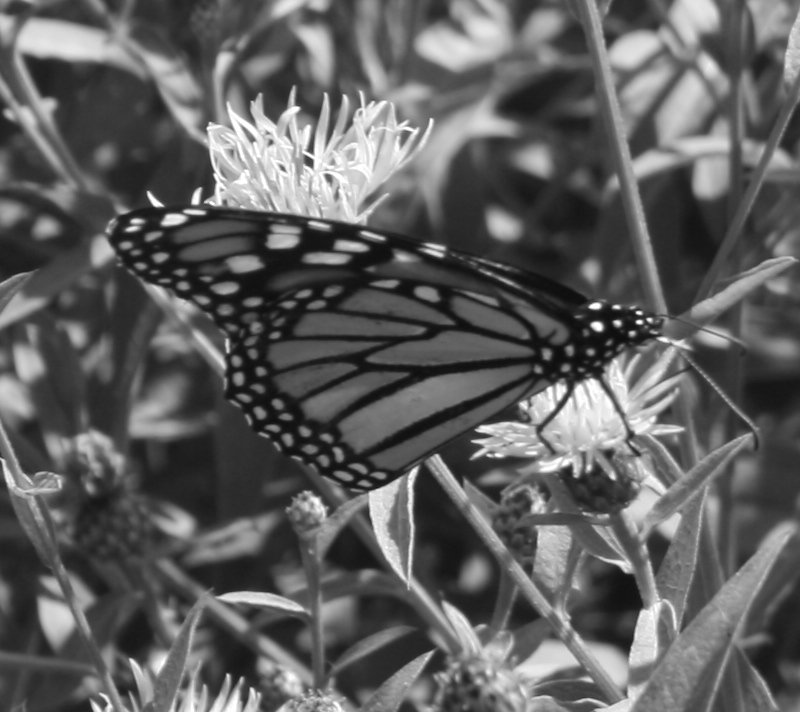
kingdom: Animalia
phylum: Arthropoda
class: Insecta
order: Lepidoptera
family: Nymphalidae
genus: Danaus
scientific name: Danaus plexippus
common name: Monarch
